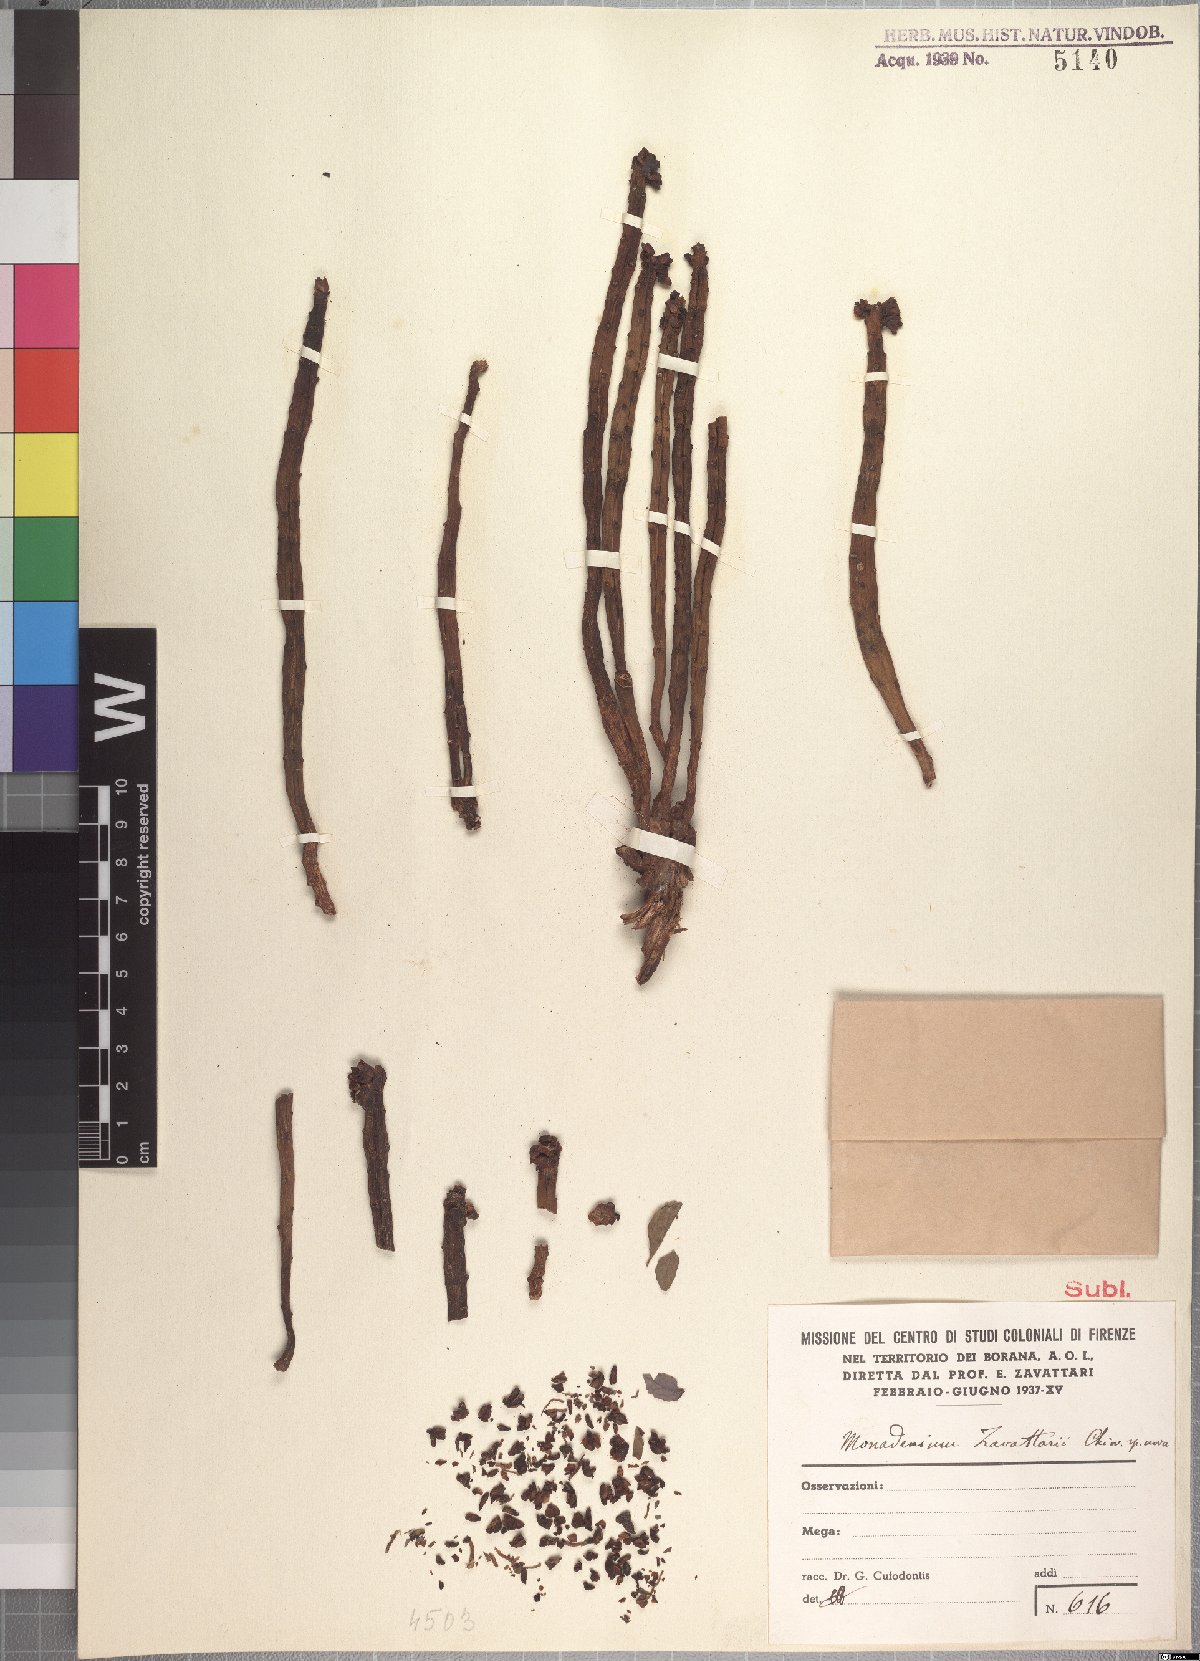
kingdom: Plantae
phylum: Tracheophyta
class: Magnoliopsida
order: Malpighiales
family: Euphorbiaceae
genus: Euphorbia
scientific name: Euphorbia bisellenbeckii
